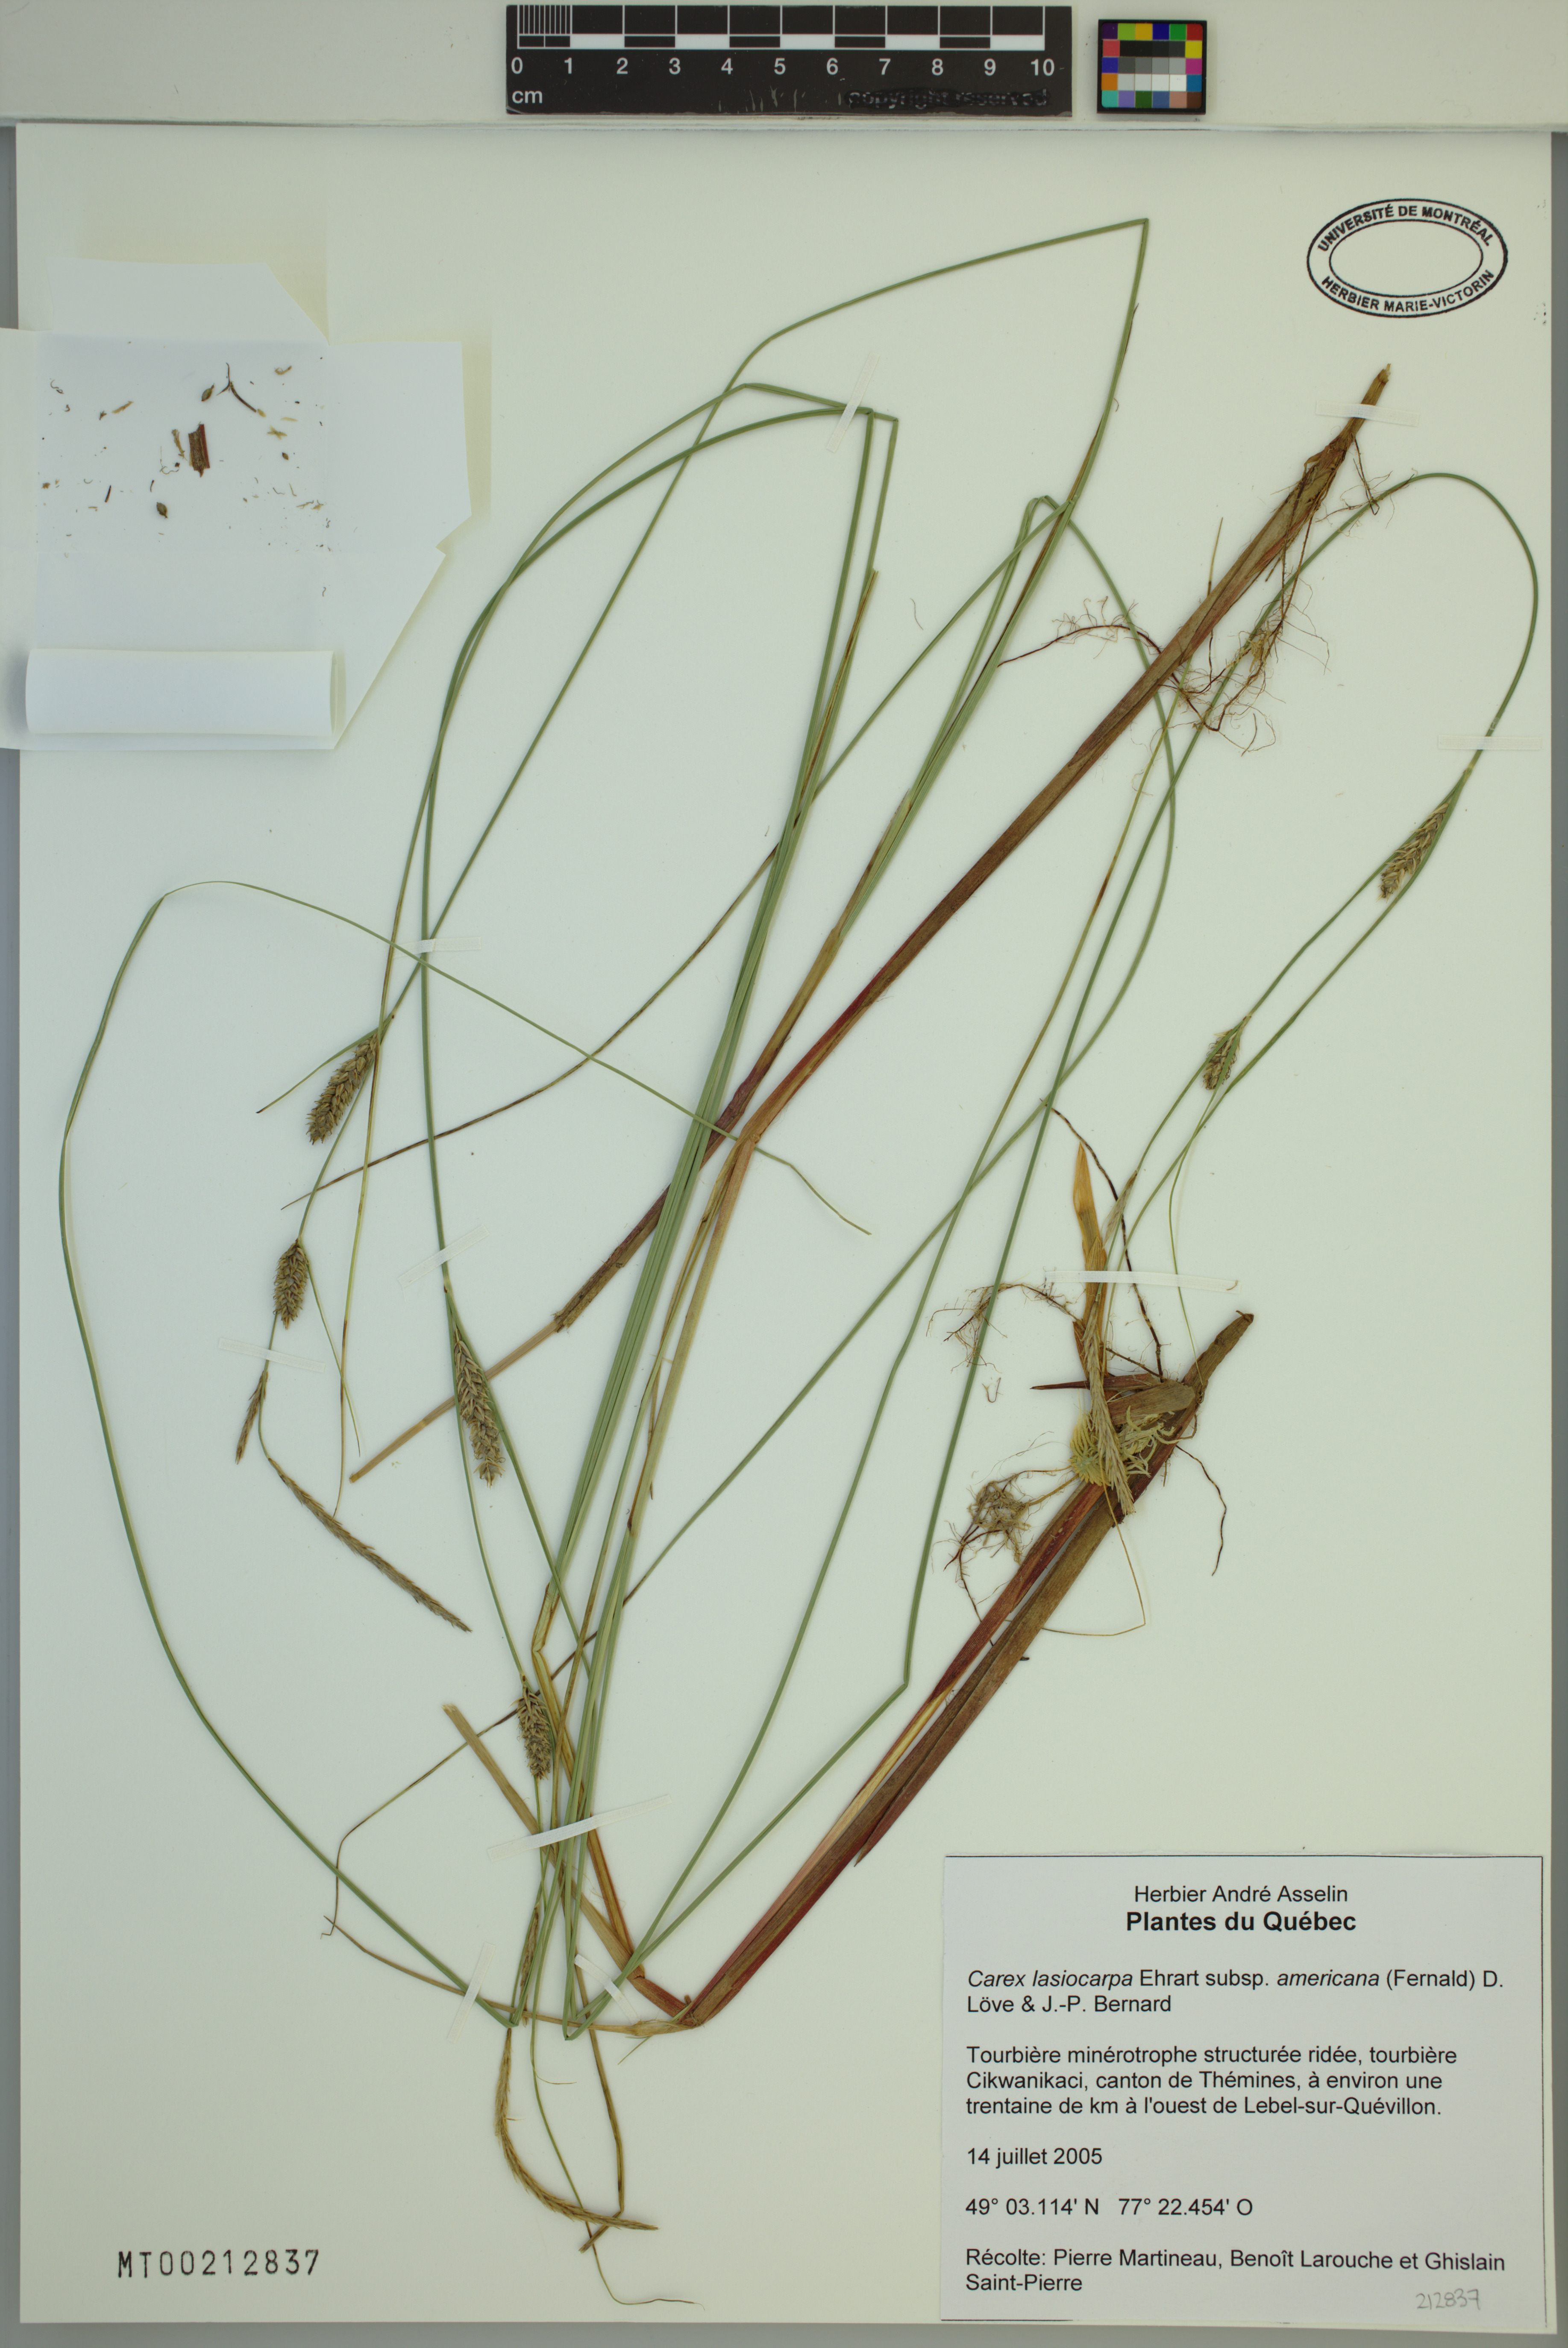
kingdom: Plantae
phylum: Tracheophyta
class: Liliopsida
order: Poales
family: Cyperaceae
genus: Carex
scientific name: Carex lasiocarpa
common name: Slender sedge
